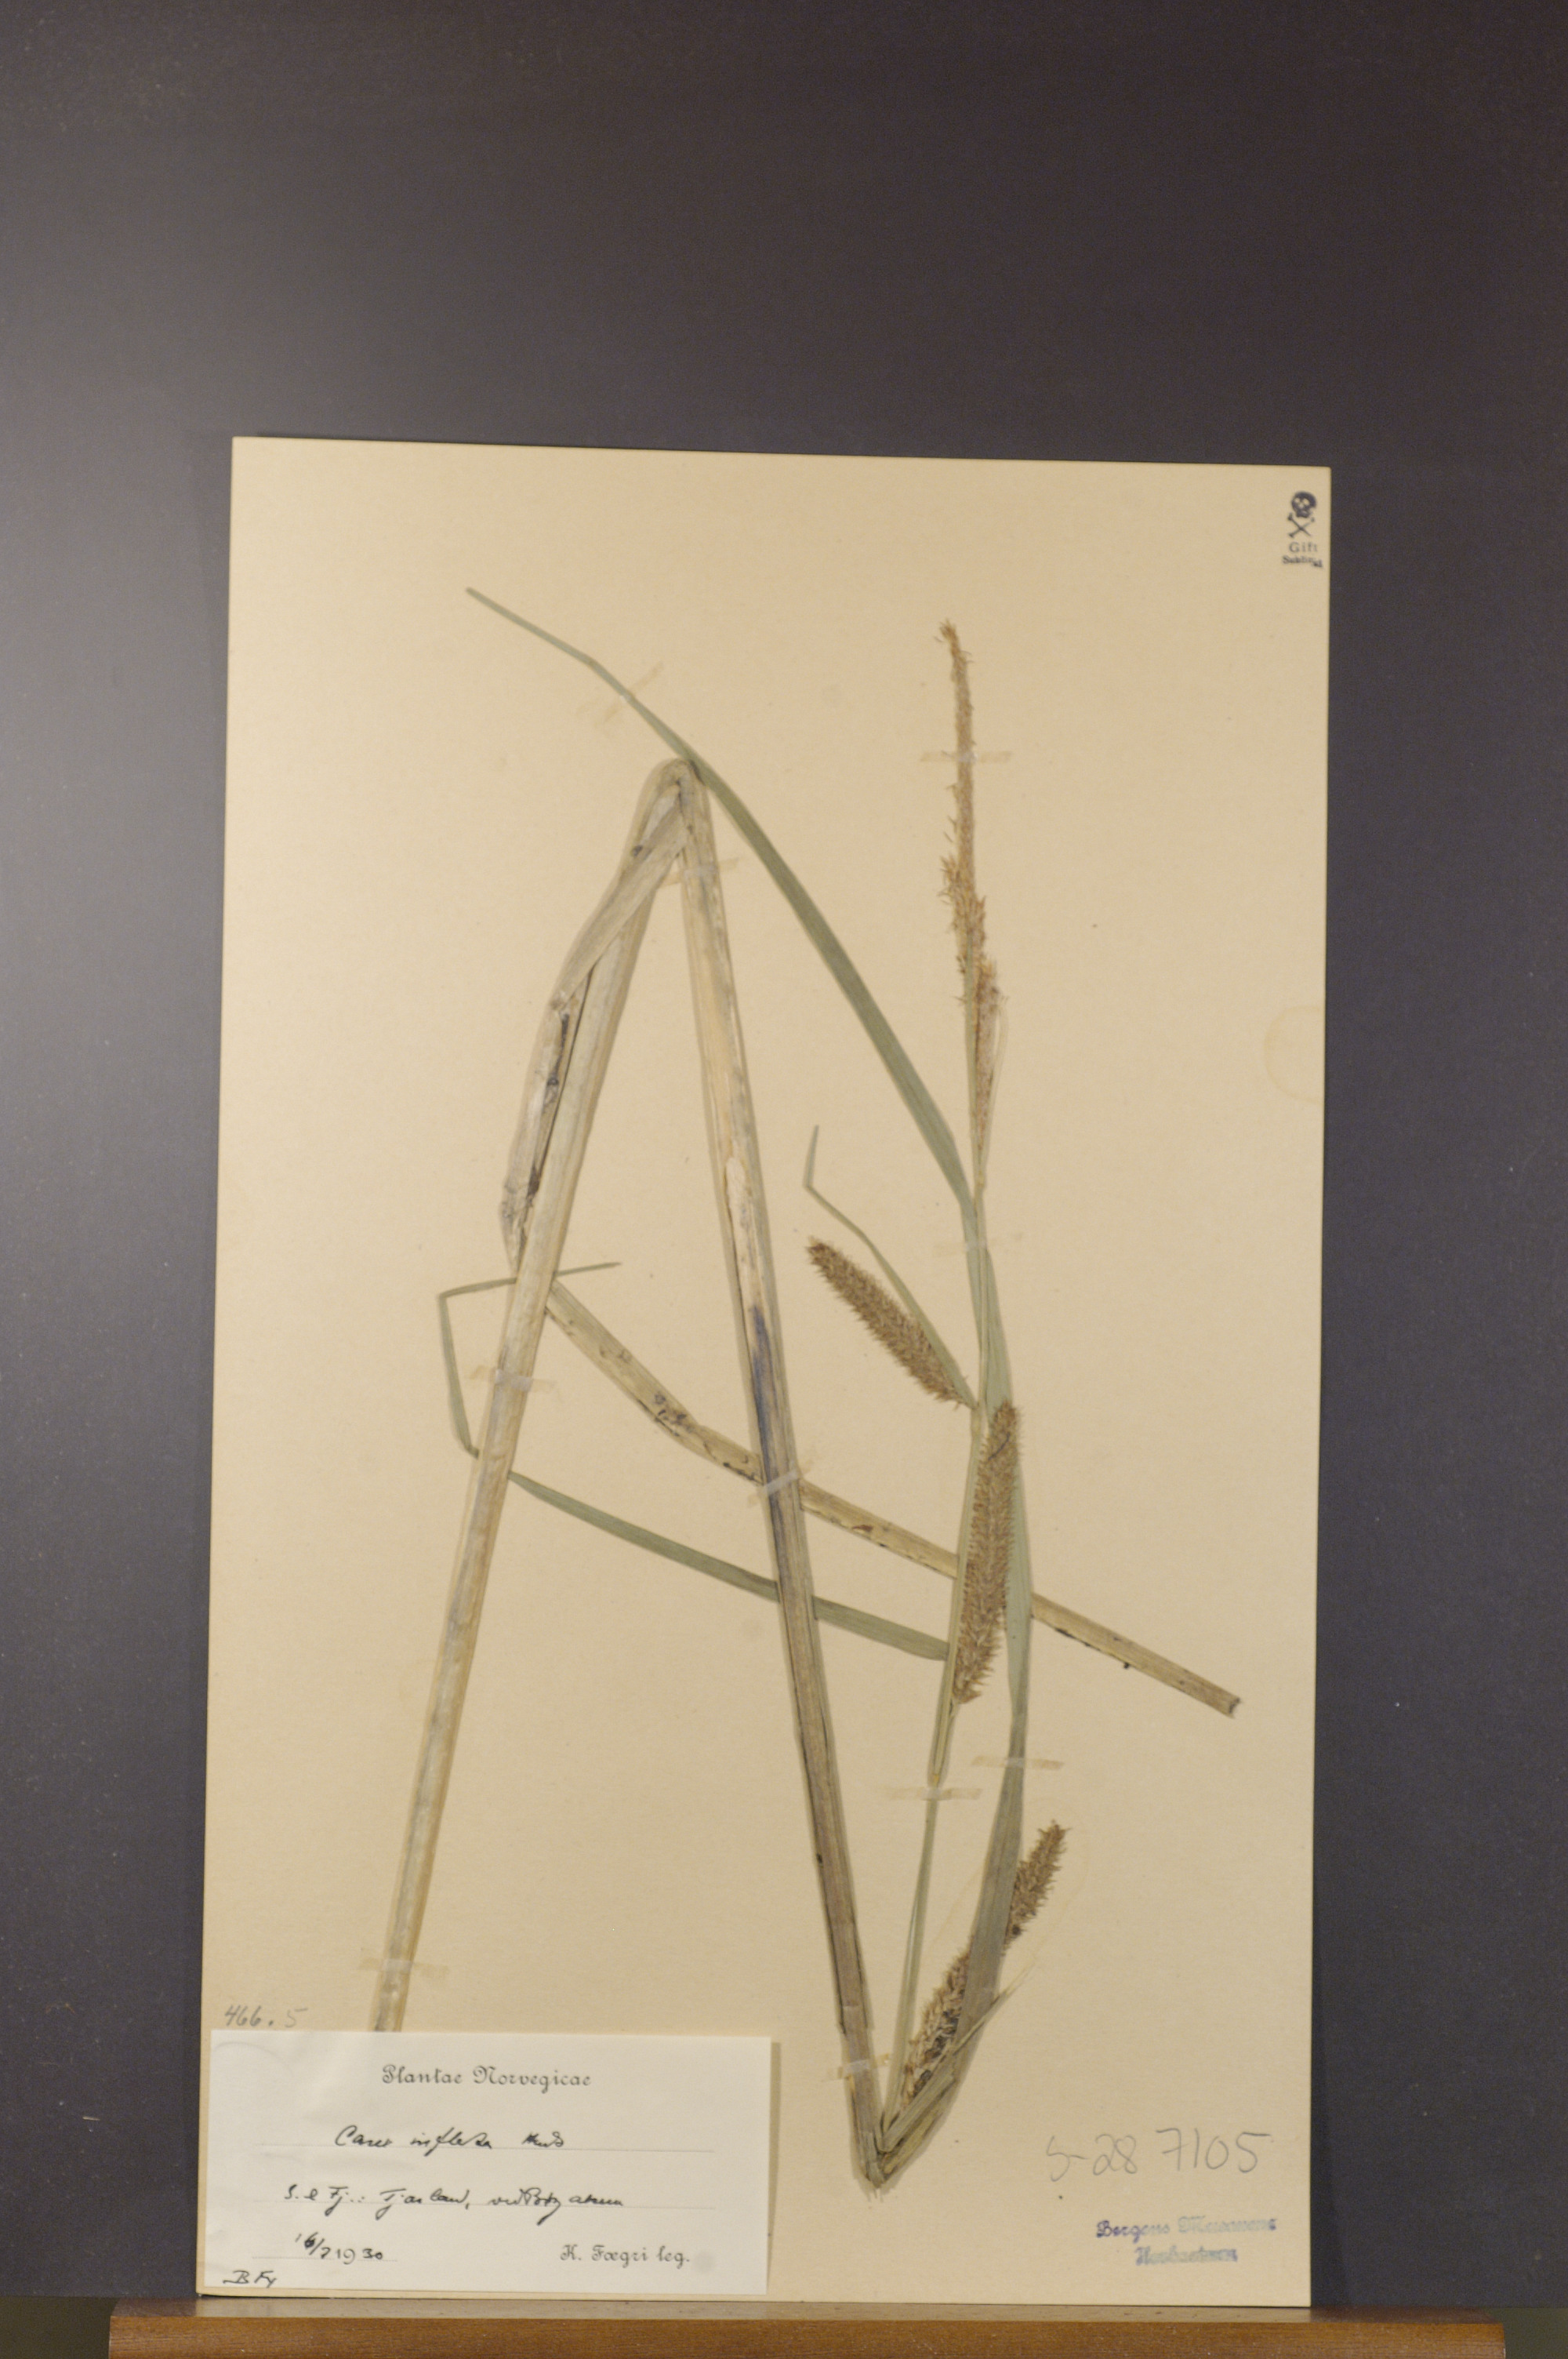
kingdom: Plantae
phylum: Tracheophyta
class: Liliopsida
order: Poales
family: Cyperaceae
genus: Carex
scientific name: Carex rostrata
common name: Bottle sedge
